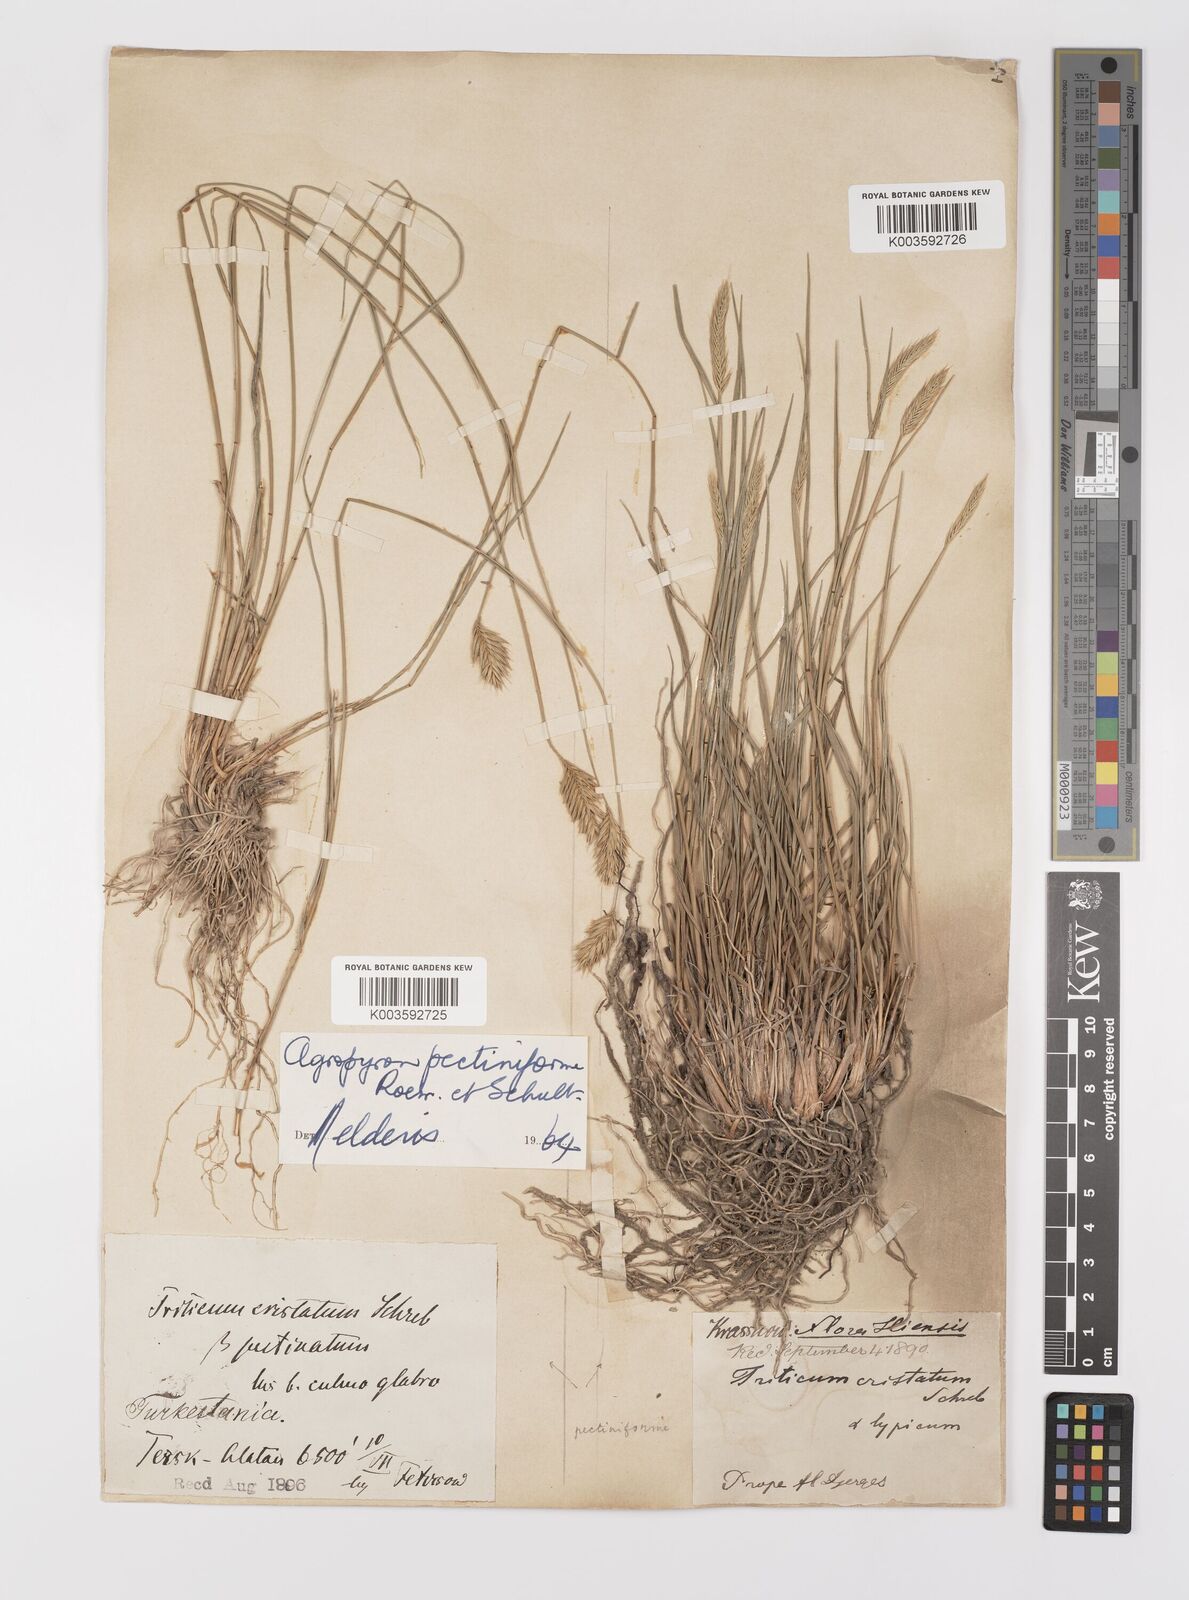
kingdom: Plantae
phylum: Tracheophyta
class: Liliopsida
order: Poales
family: Poaceae
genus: Agropyron
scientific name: Agropyron cristatum
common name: Crested wheatgrass
